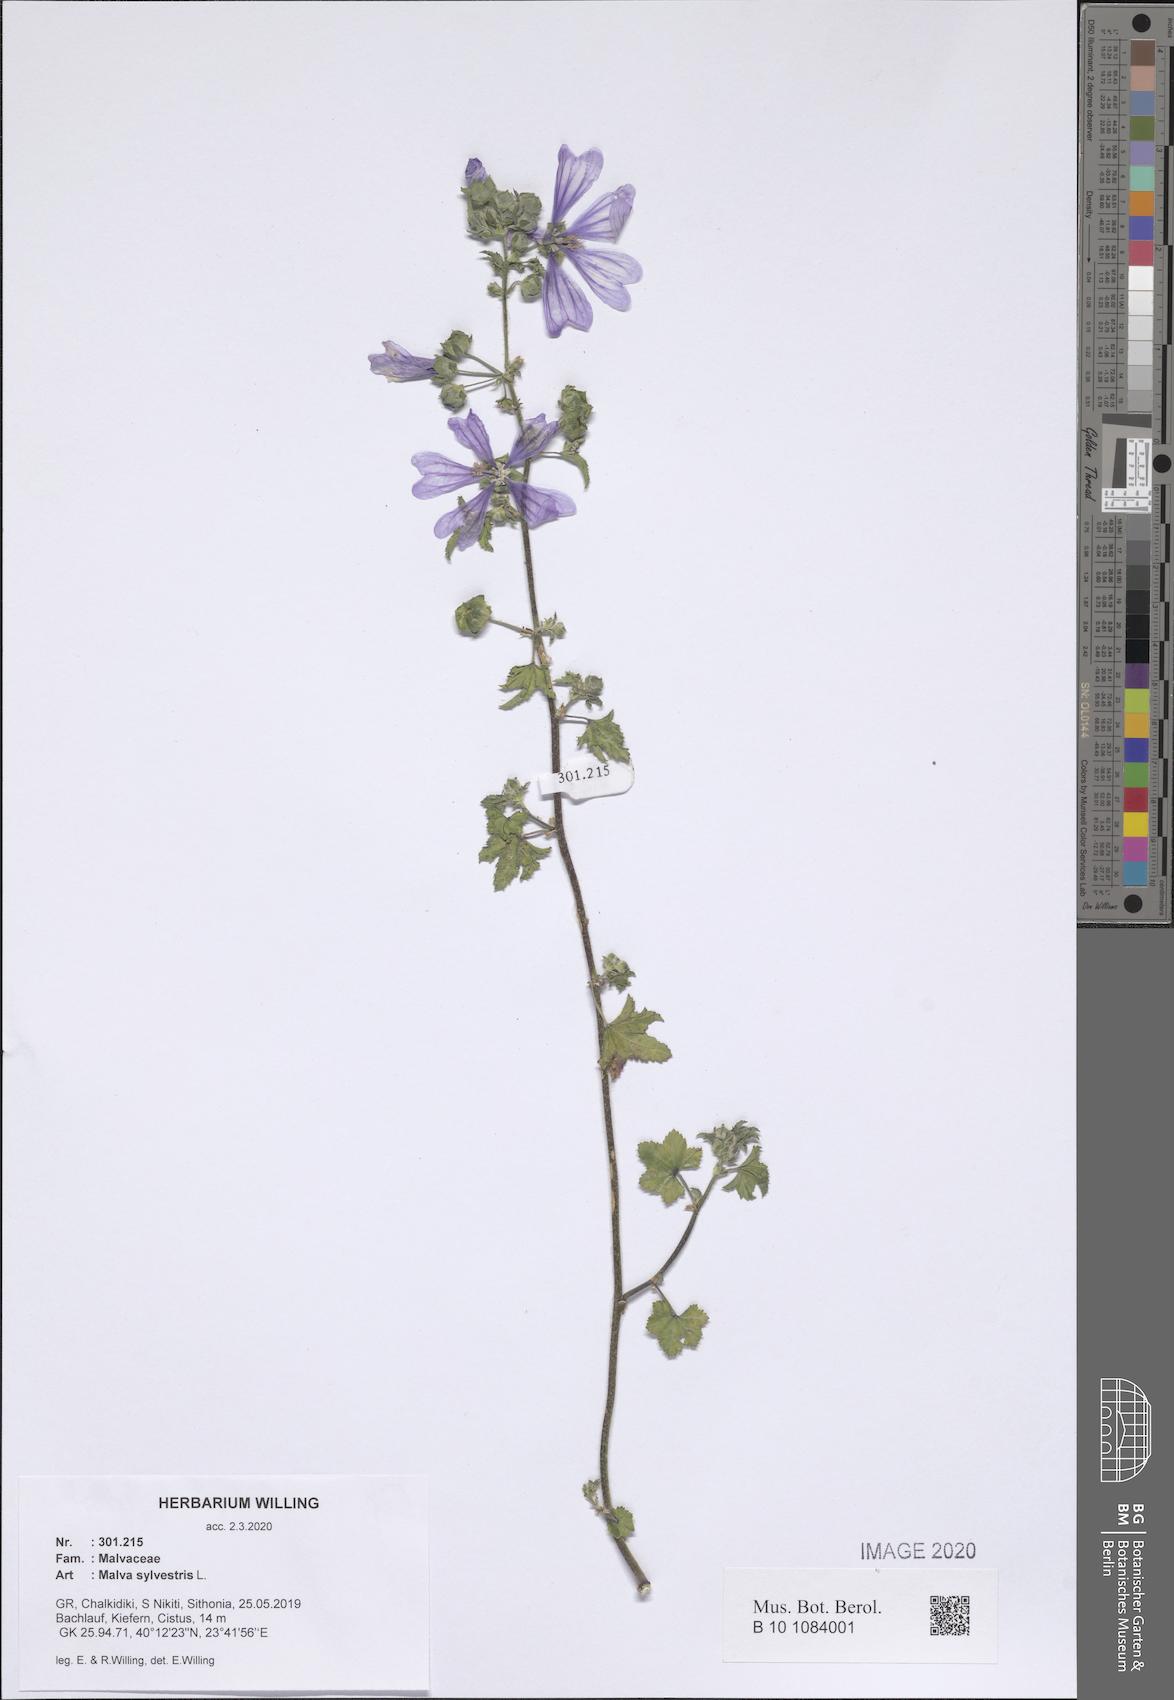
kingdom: Plantae
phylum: Tracheophyta
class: Magnoliopsida
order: Malvales
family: Malvaceae
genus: Malva
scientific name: Malva sylvestris
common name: Common mallow
